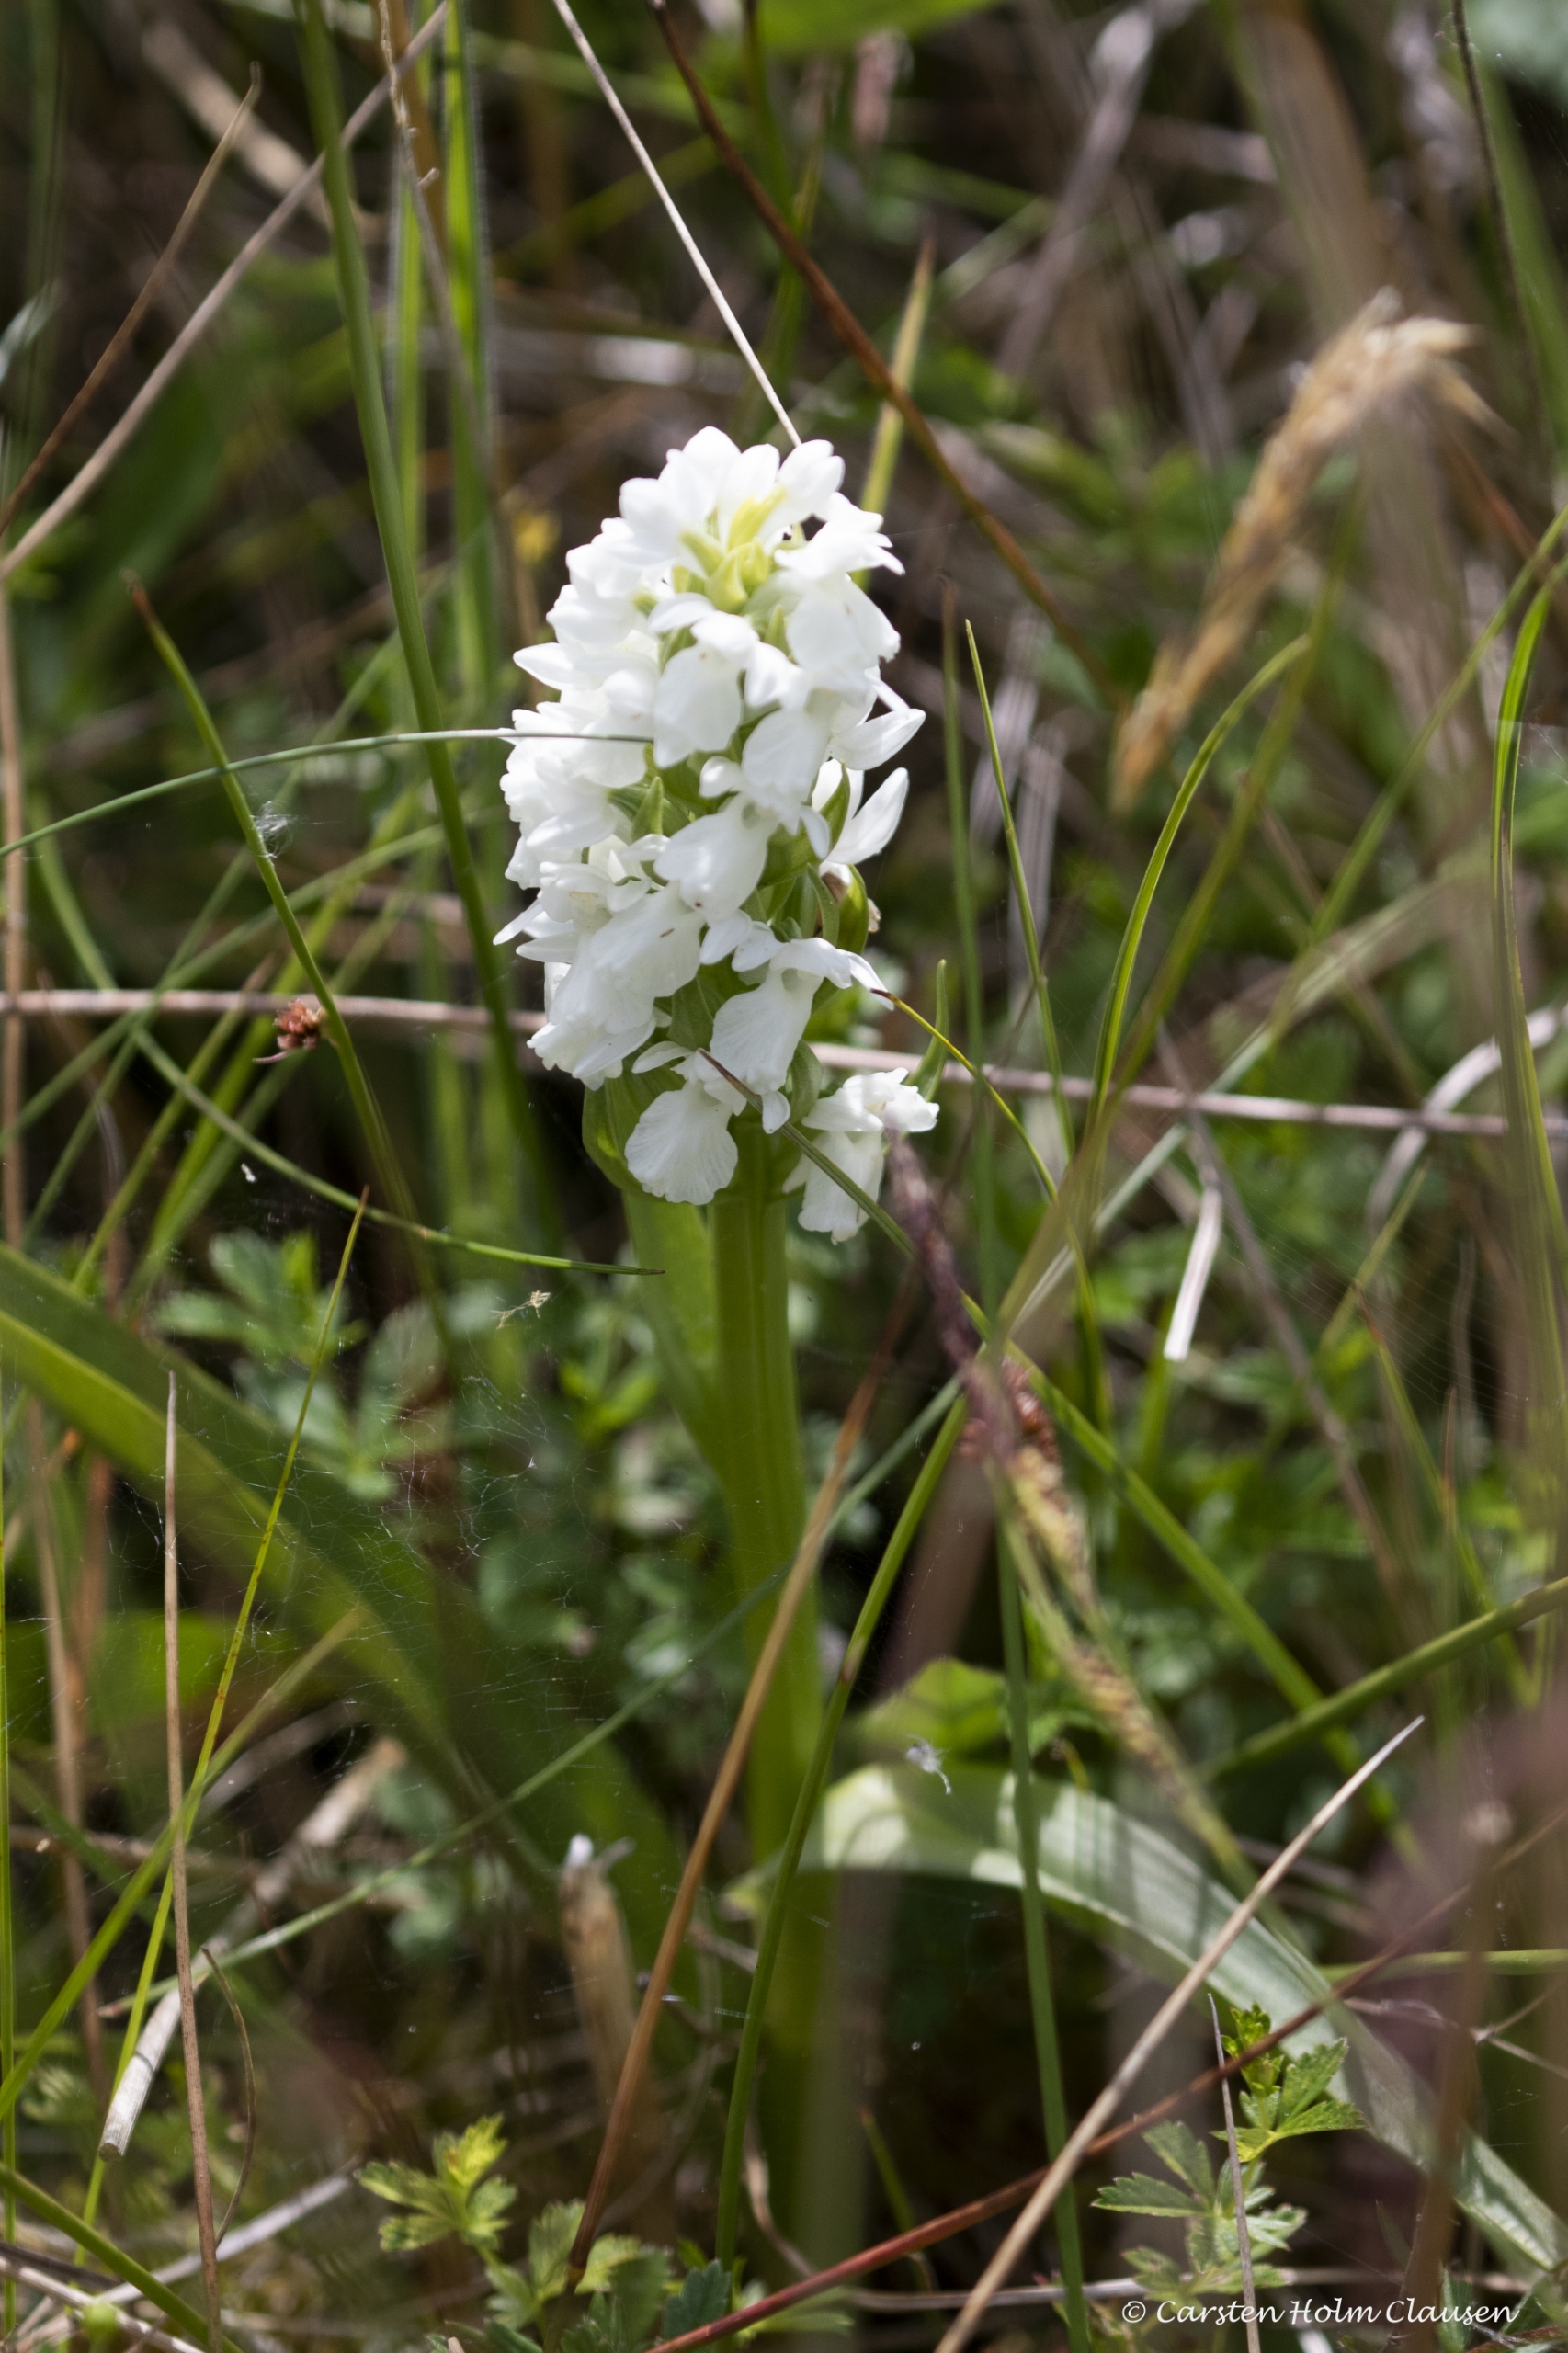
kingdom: Plantae
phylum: Tracheophyta
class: Liliopsida
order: Asparagales
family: Orchidaceae
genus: Dactylorhiza
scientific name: Dactylorhiza majalis
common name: Thy-gøgeurt
